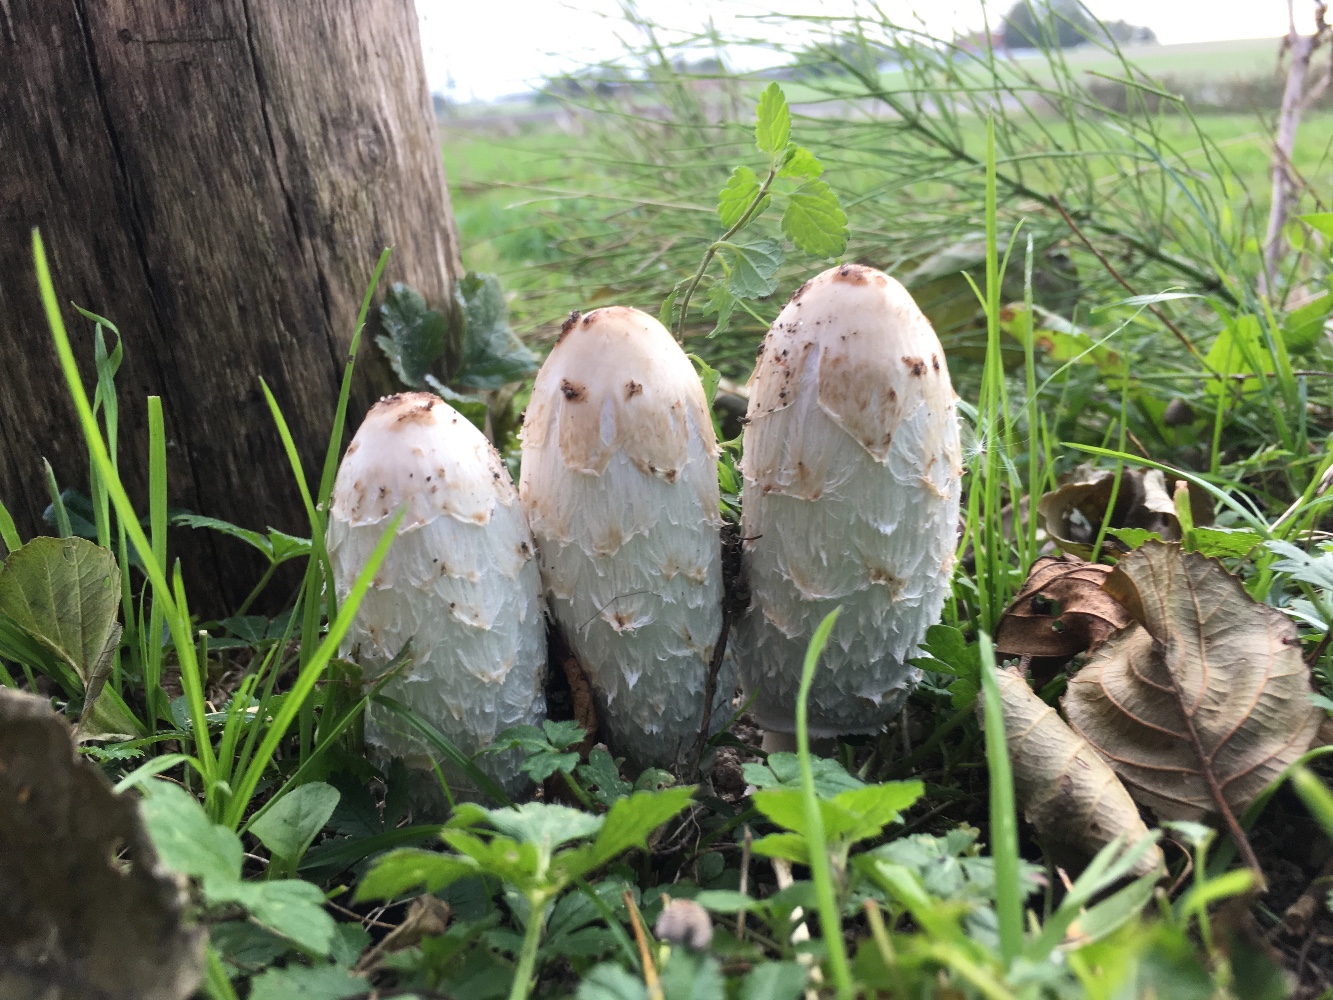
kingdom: Fungi
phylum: Basidiomycota
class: Agaricomycetes
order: Agaricales
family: Agaricaceae
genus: Coprinus
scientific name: Coprinus comatus
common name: stor parykhat
